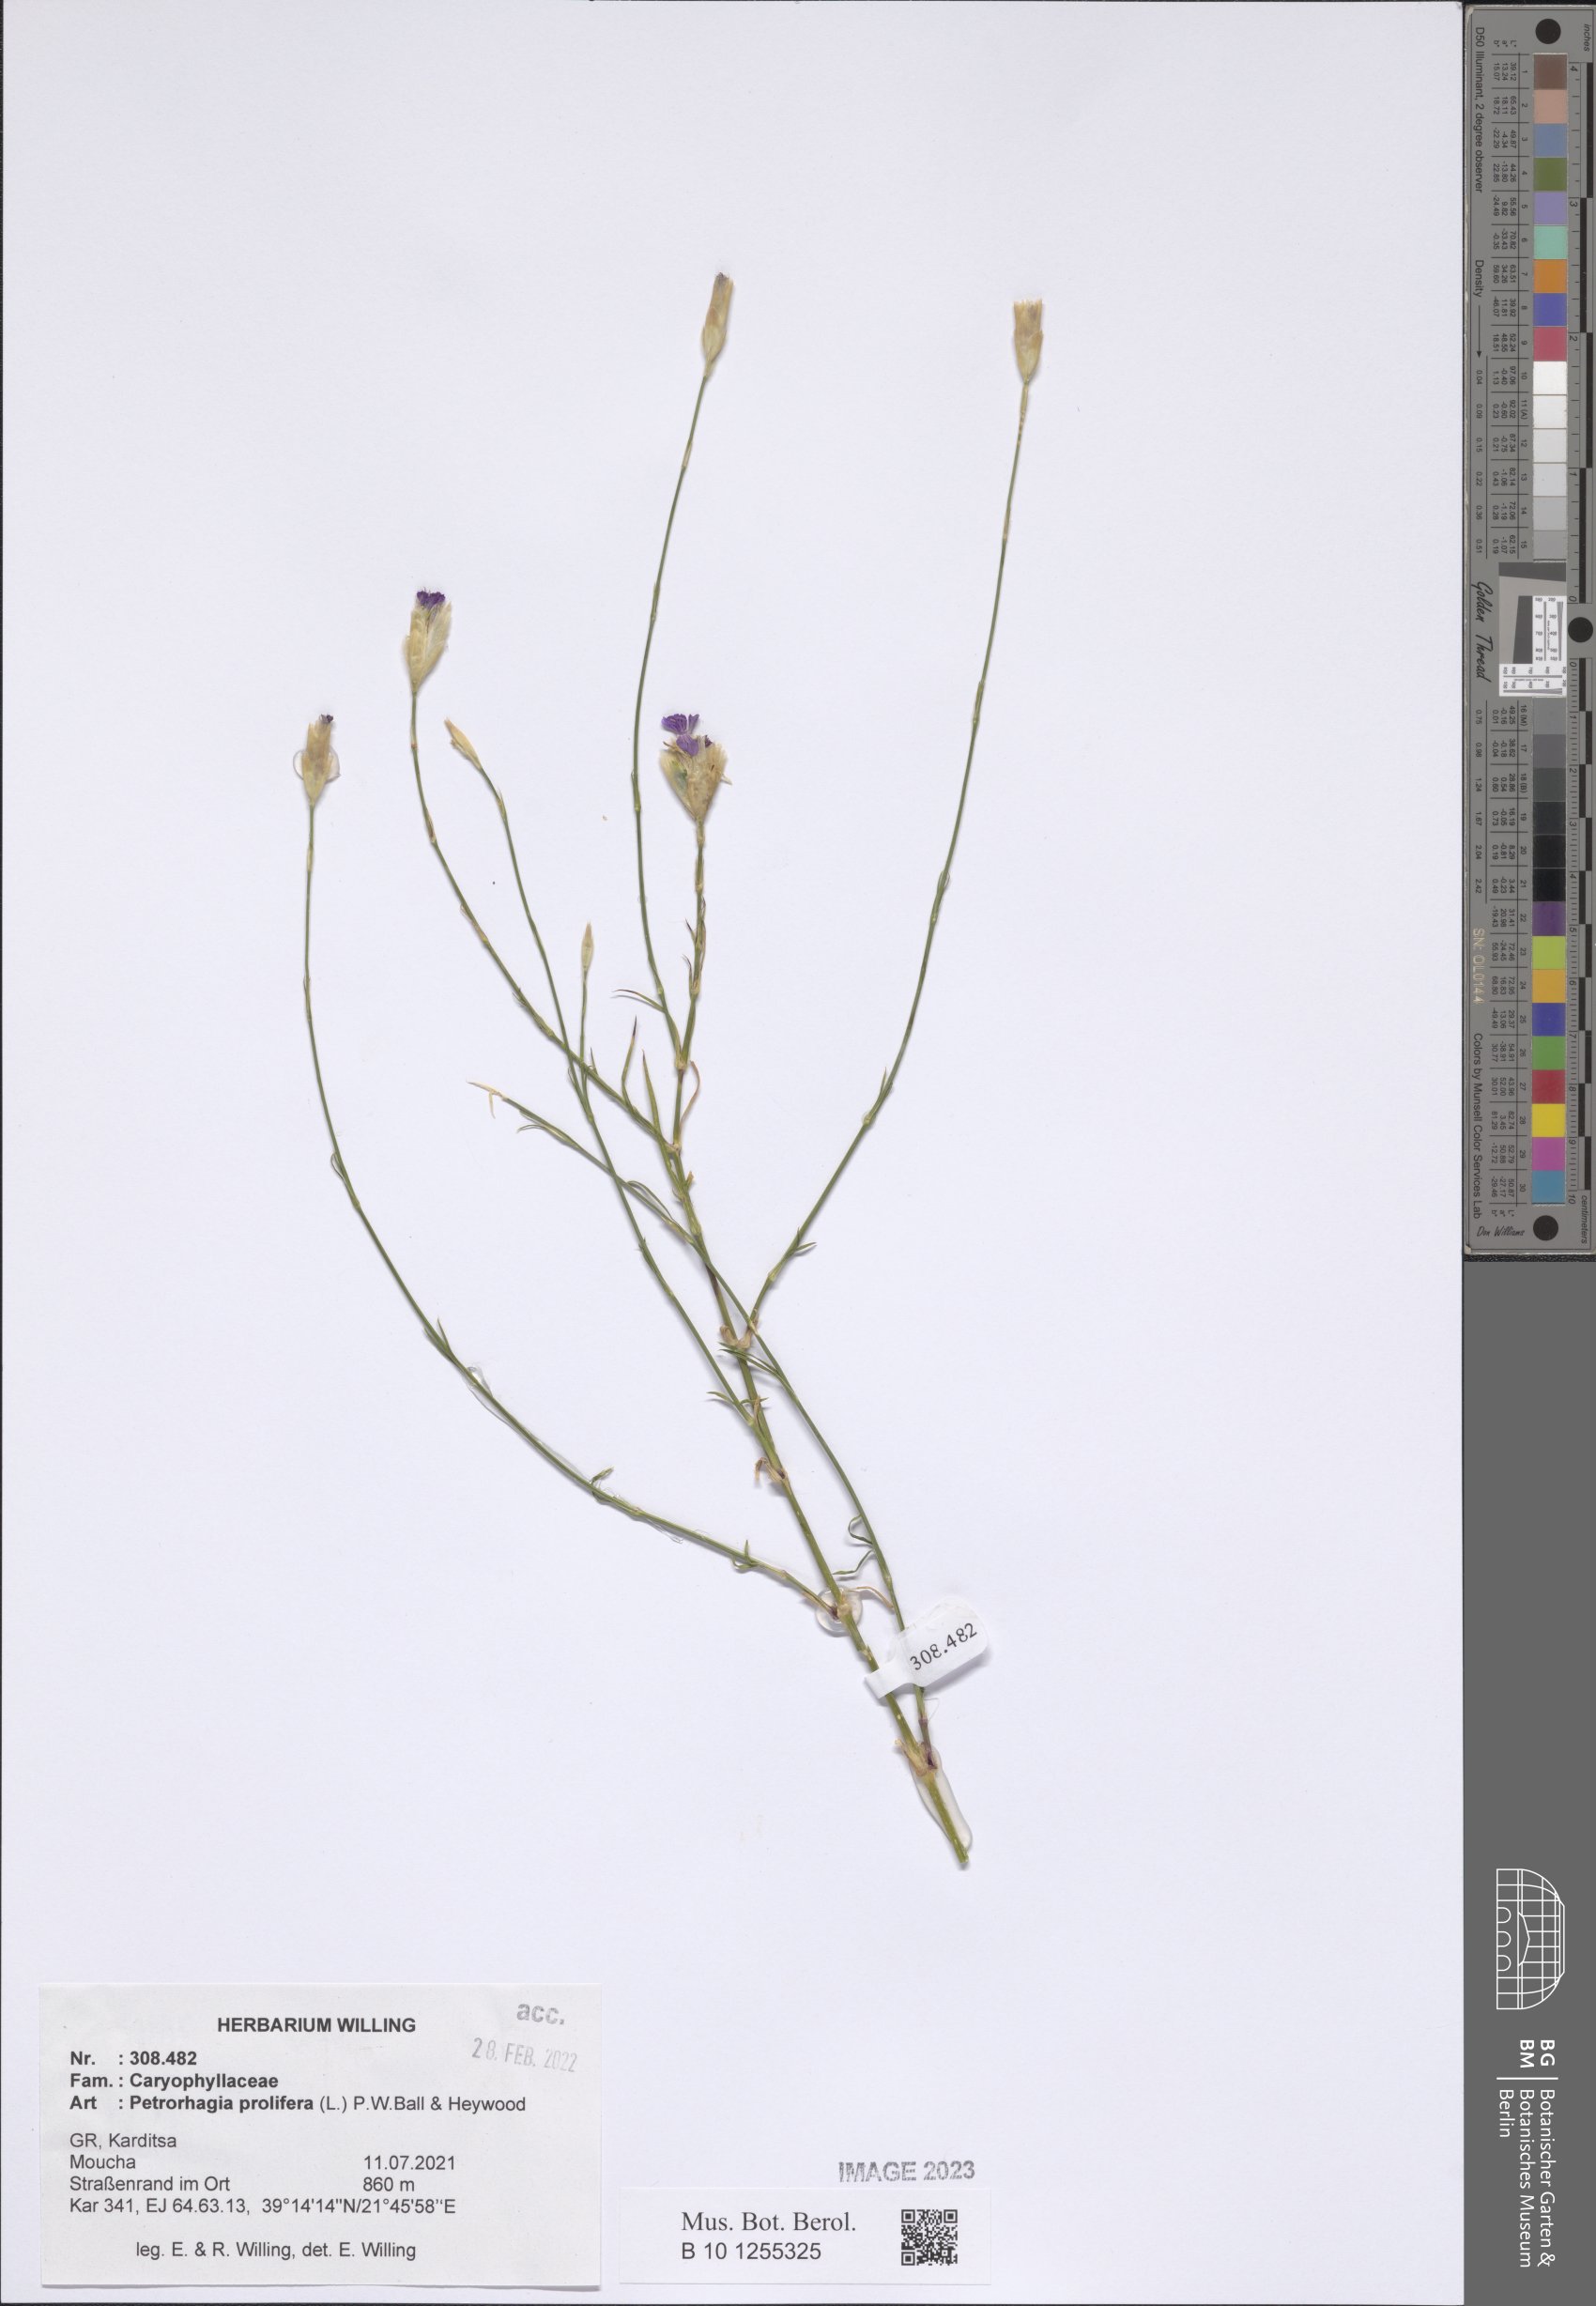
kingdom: Plantae
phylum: Tracheophyta
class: Magnoliopsida
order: Caryophyllales
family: Caryophyllaceae
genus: Petrorhagia
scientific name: Petrorhagia prolifera
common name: Proliferous pink
